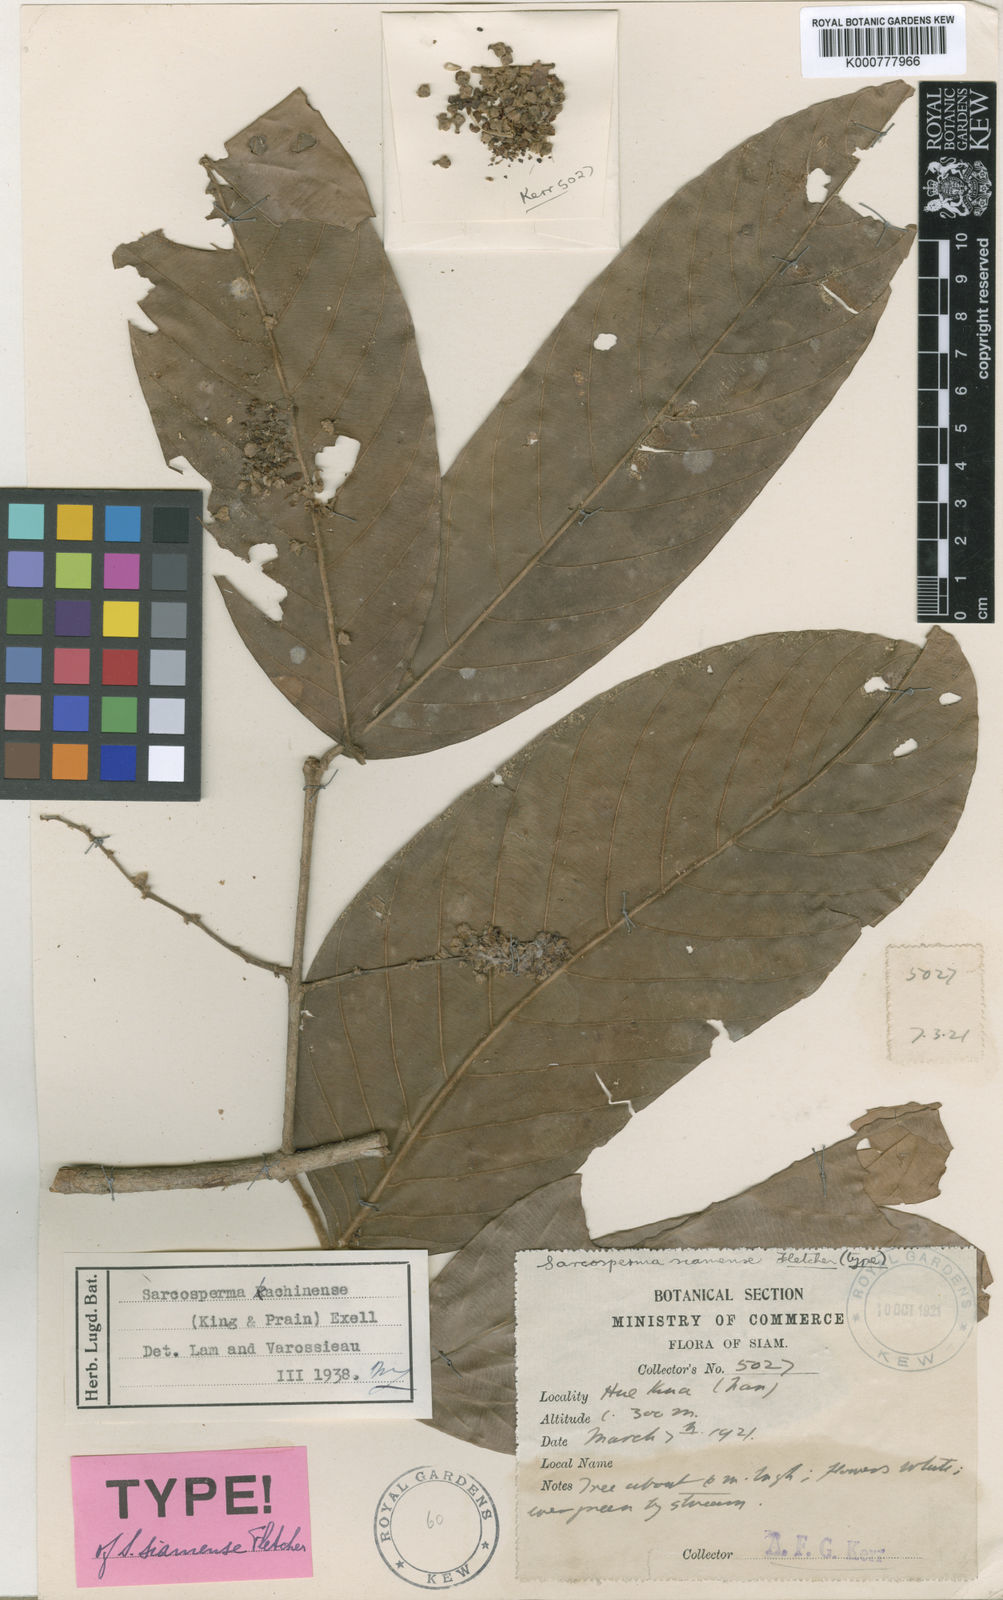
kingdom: Plantae
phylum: Tracheophyta
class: Magnoliopsida
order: Ericales
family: Sapotaceae
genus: Sarcosperma
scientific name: Sarcosperma kachinense
